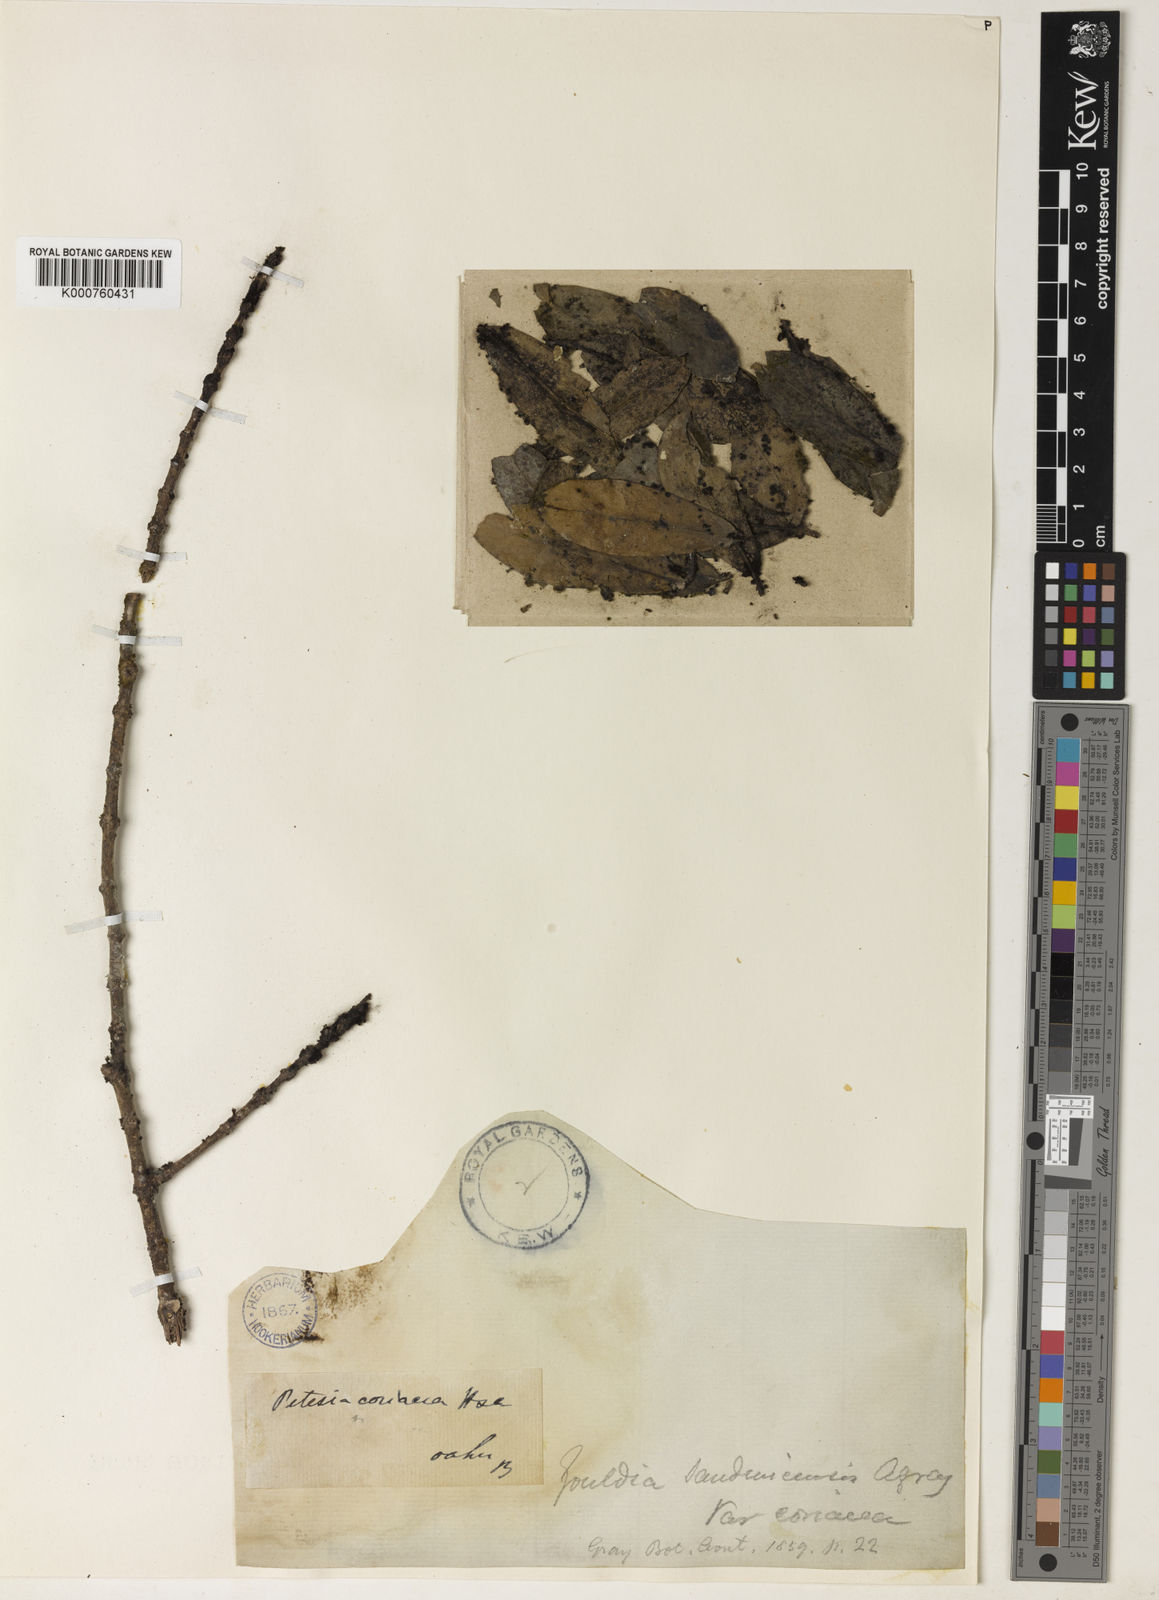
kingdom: Plantae
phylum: Tracheophyta
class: Magnoliopsida
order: Gentianales
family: Rubiaceae
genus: Kadua
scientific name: Kadua affinis
